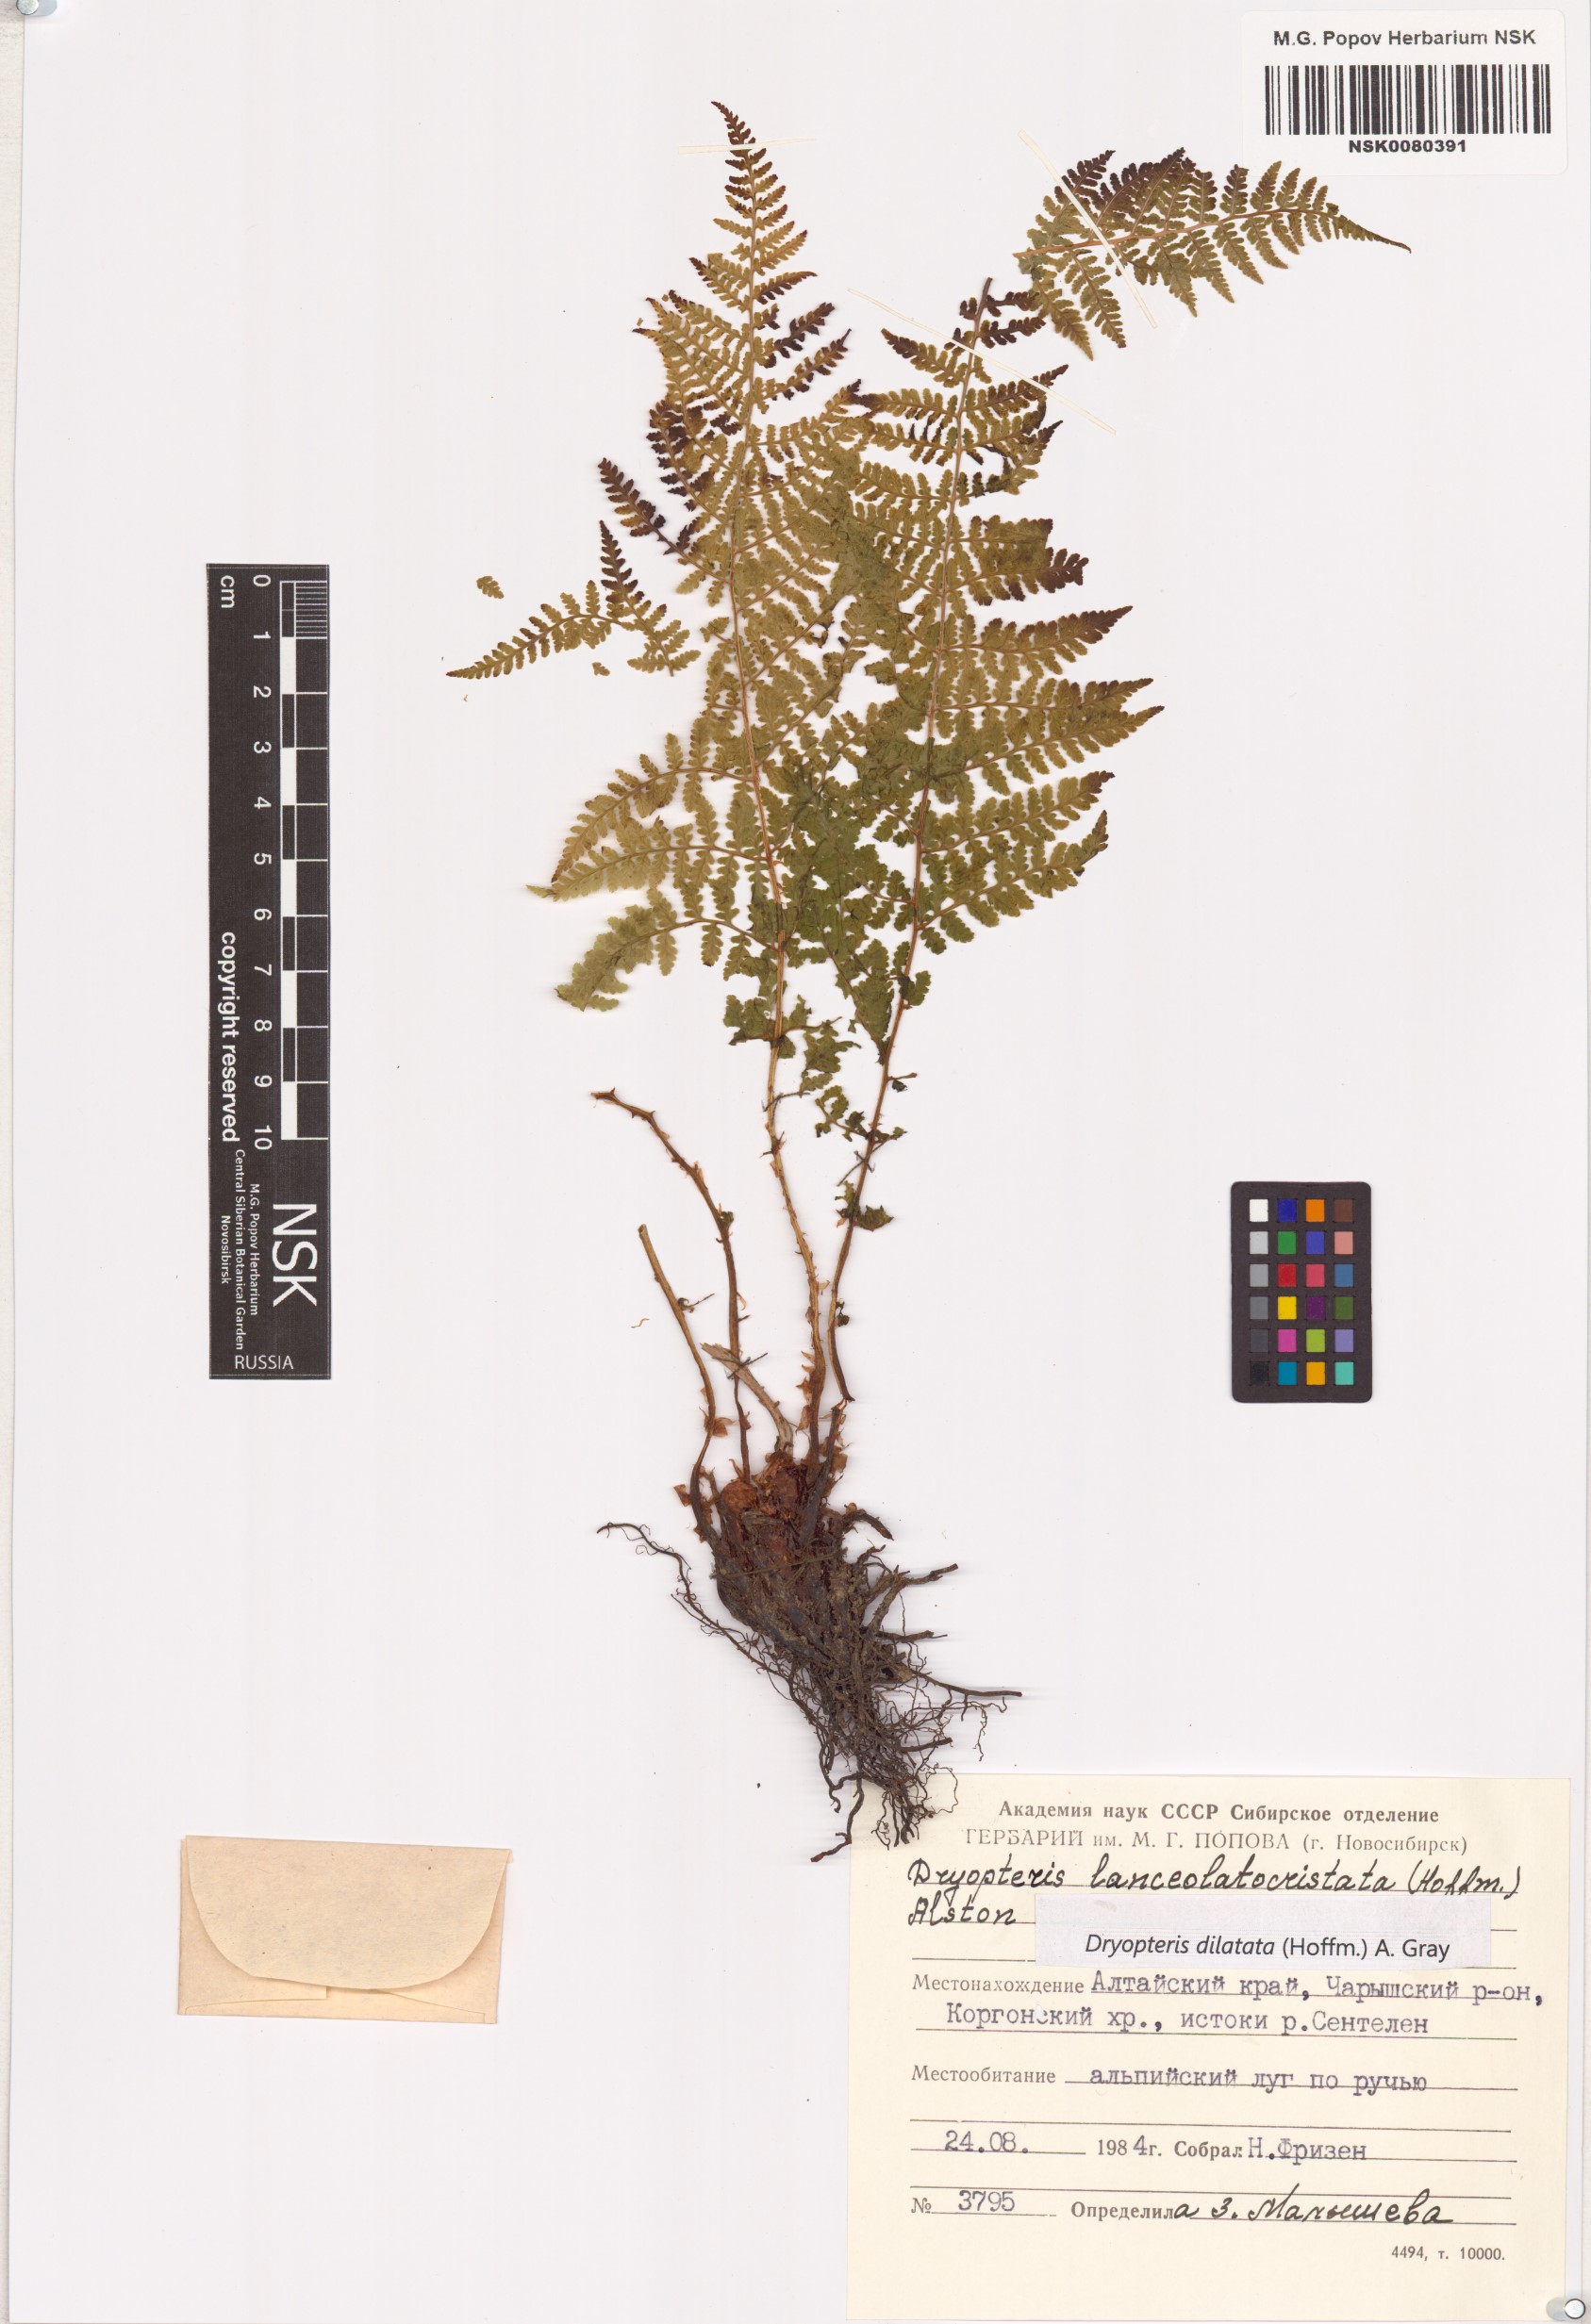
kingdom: Plantae
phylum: Tracheophyta
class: Polypodiopsida
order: Polypodiales
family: Dryopteridaceae
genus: Dryopteris
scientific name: Dryopteris dilatata
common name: Broad buckler-fern
